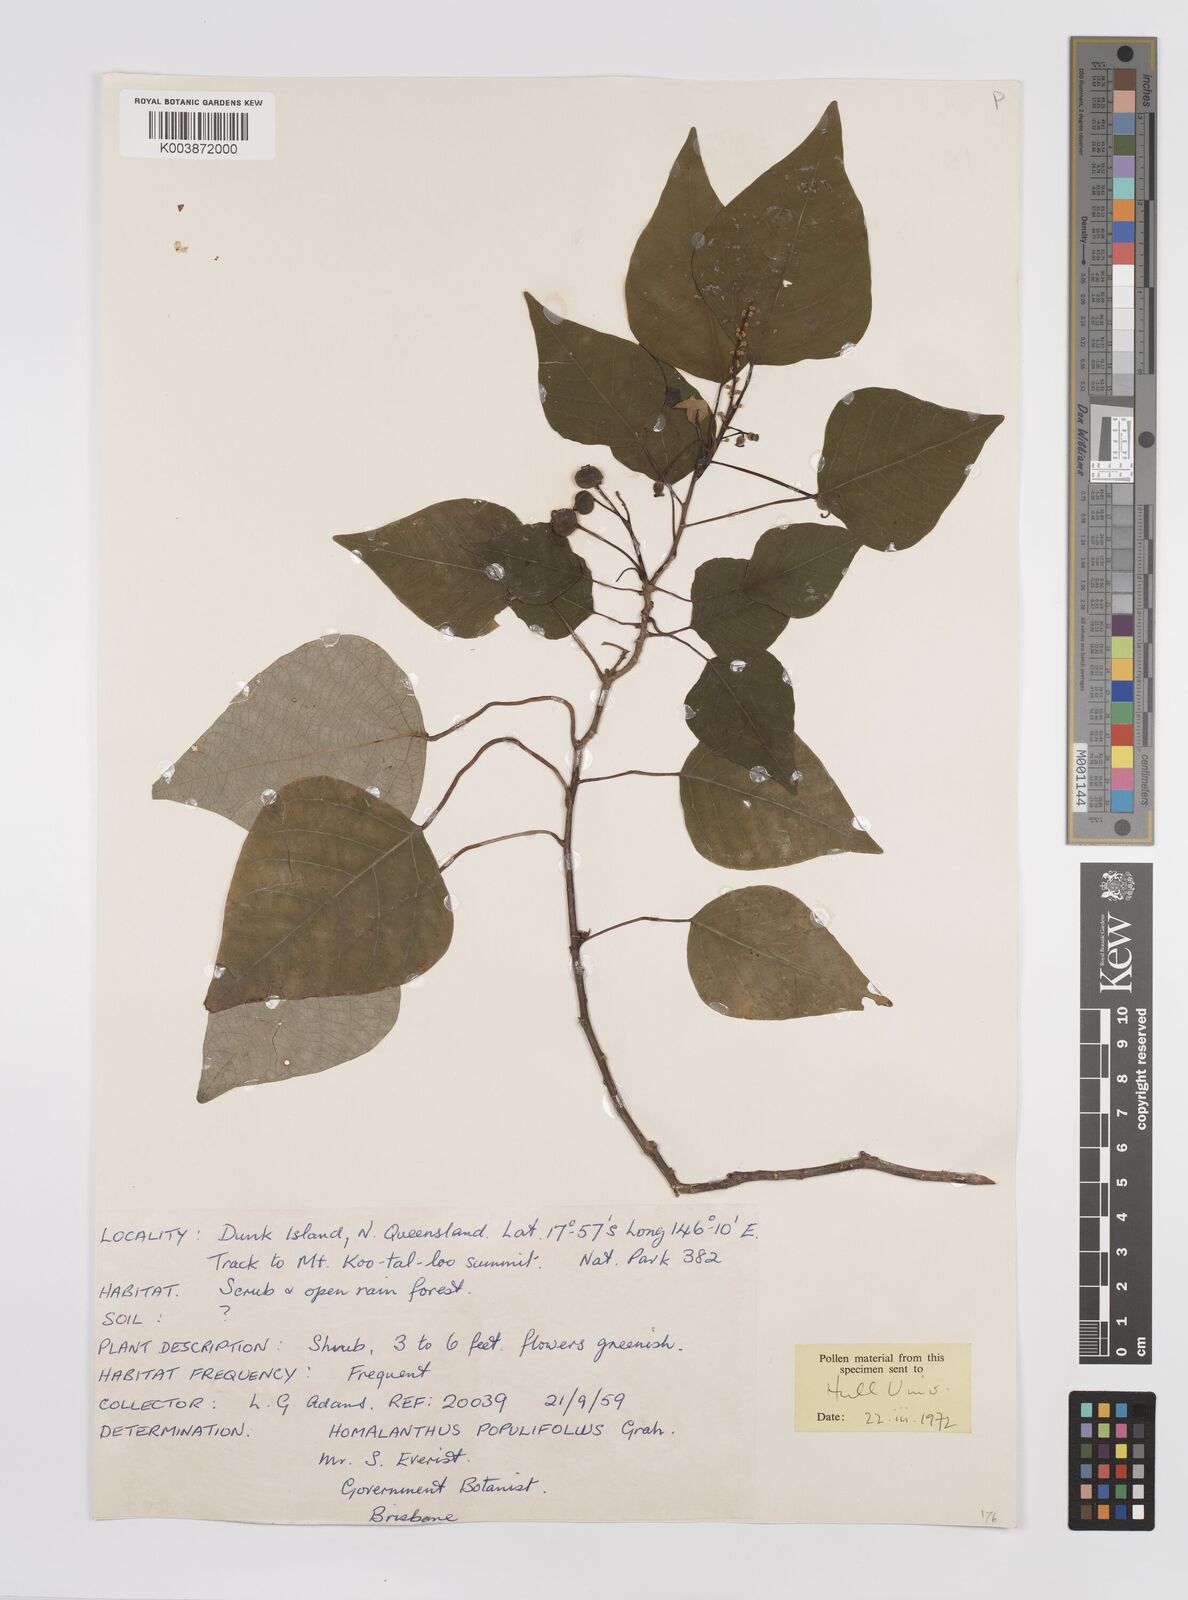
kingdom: Plantae
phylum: Tracheophyta
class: Magnoliopsida
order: Malpighiales
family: Euphorbiaceae
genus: Homalanthus
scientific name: Homalanthus populifolius
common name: Queensland poplar
